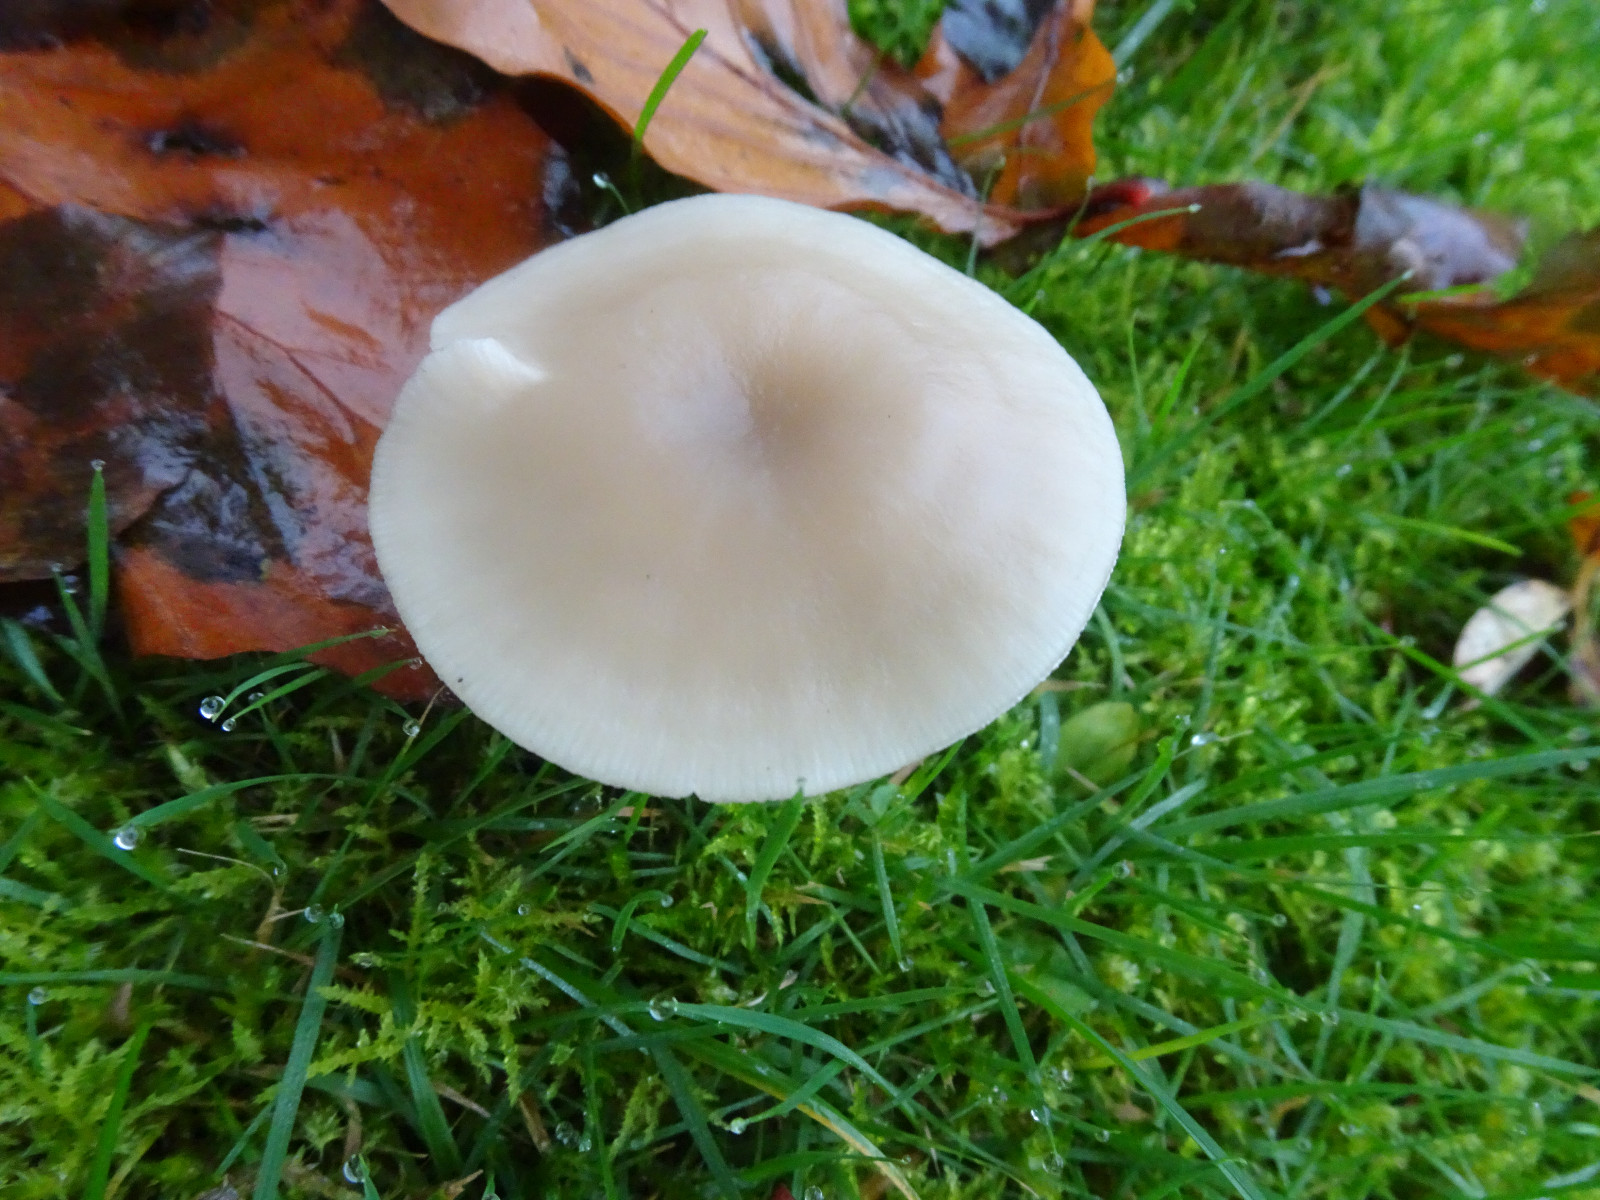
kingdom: Fungi
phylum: Basidiomycota
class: Agaricomycetes
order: Agaricales
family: Tricholomataceae
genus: Clitocybe
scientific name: Clitocybe fragrans
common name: vellugtende tragthat
